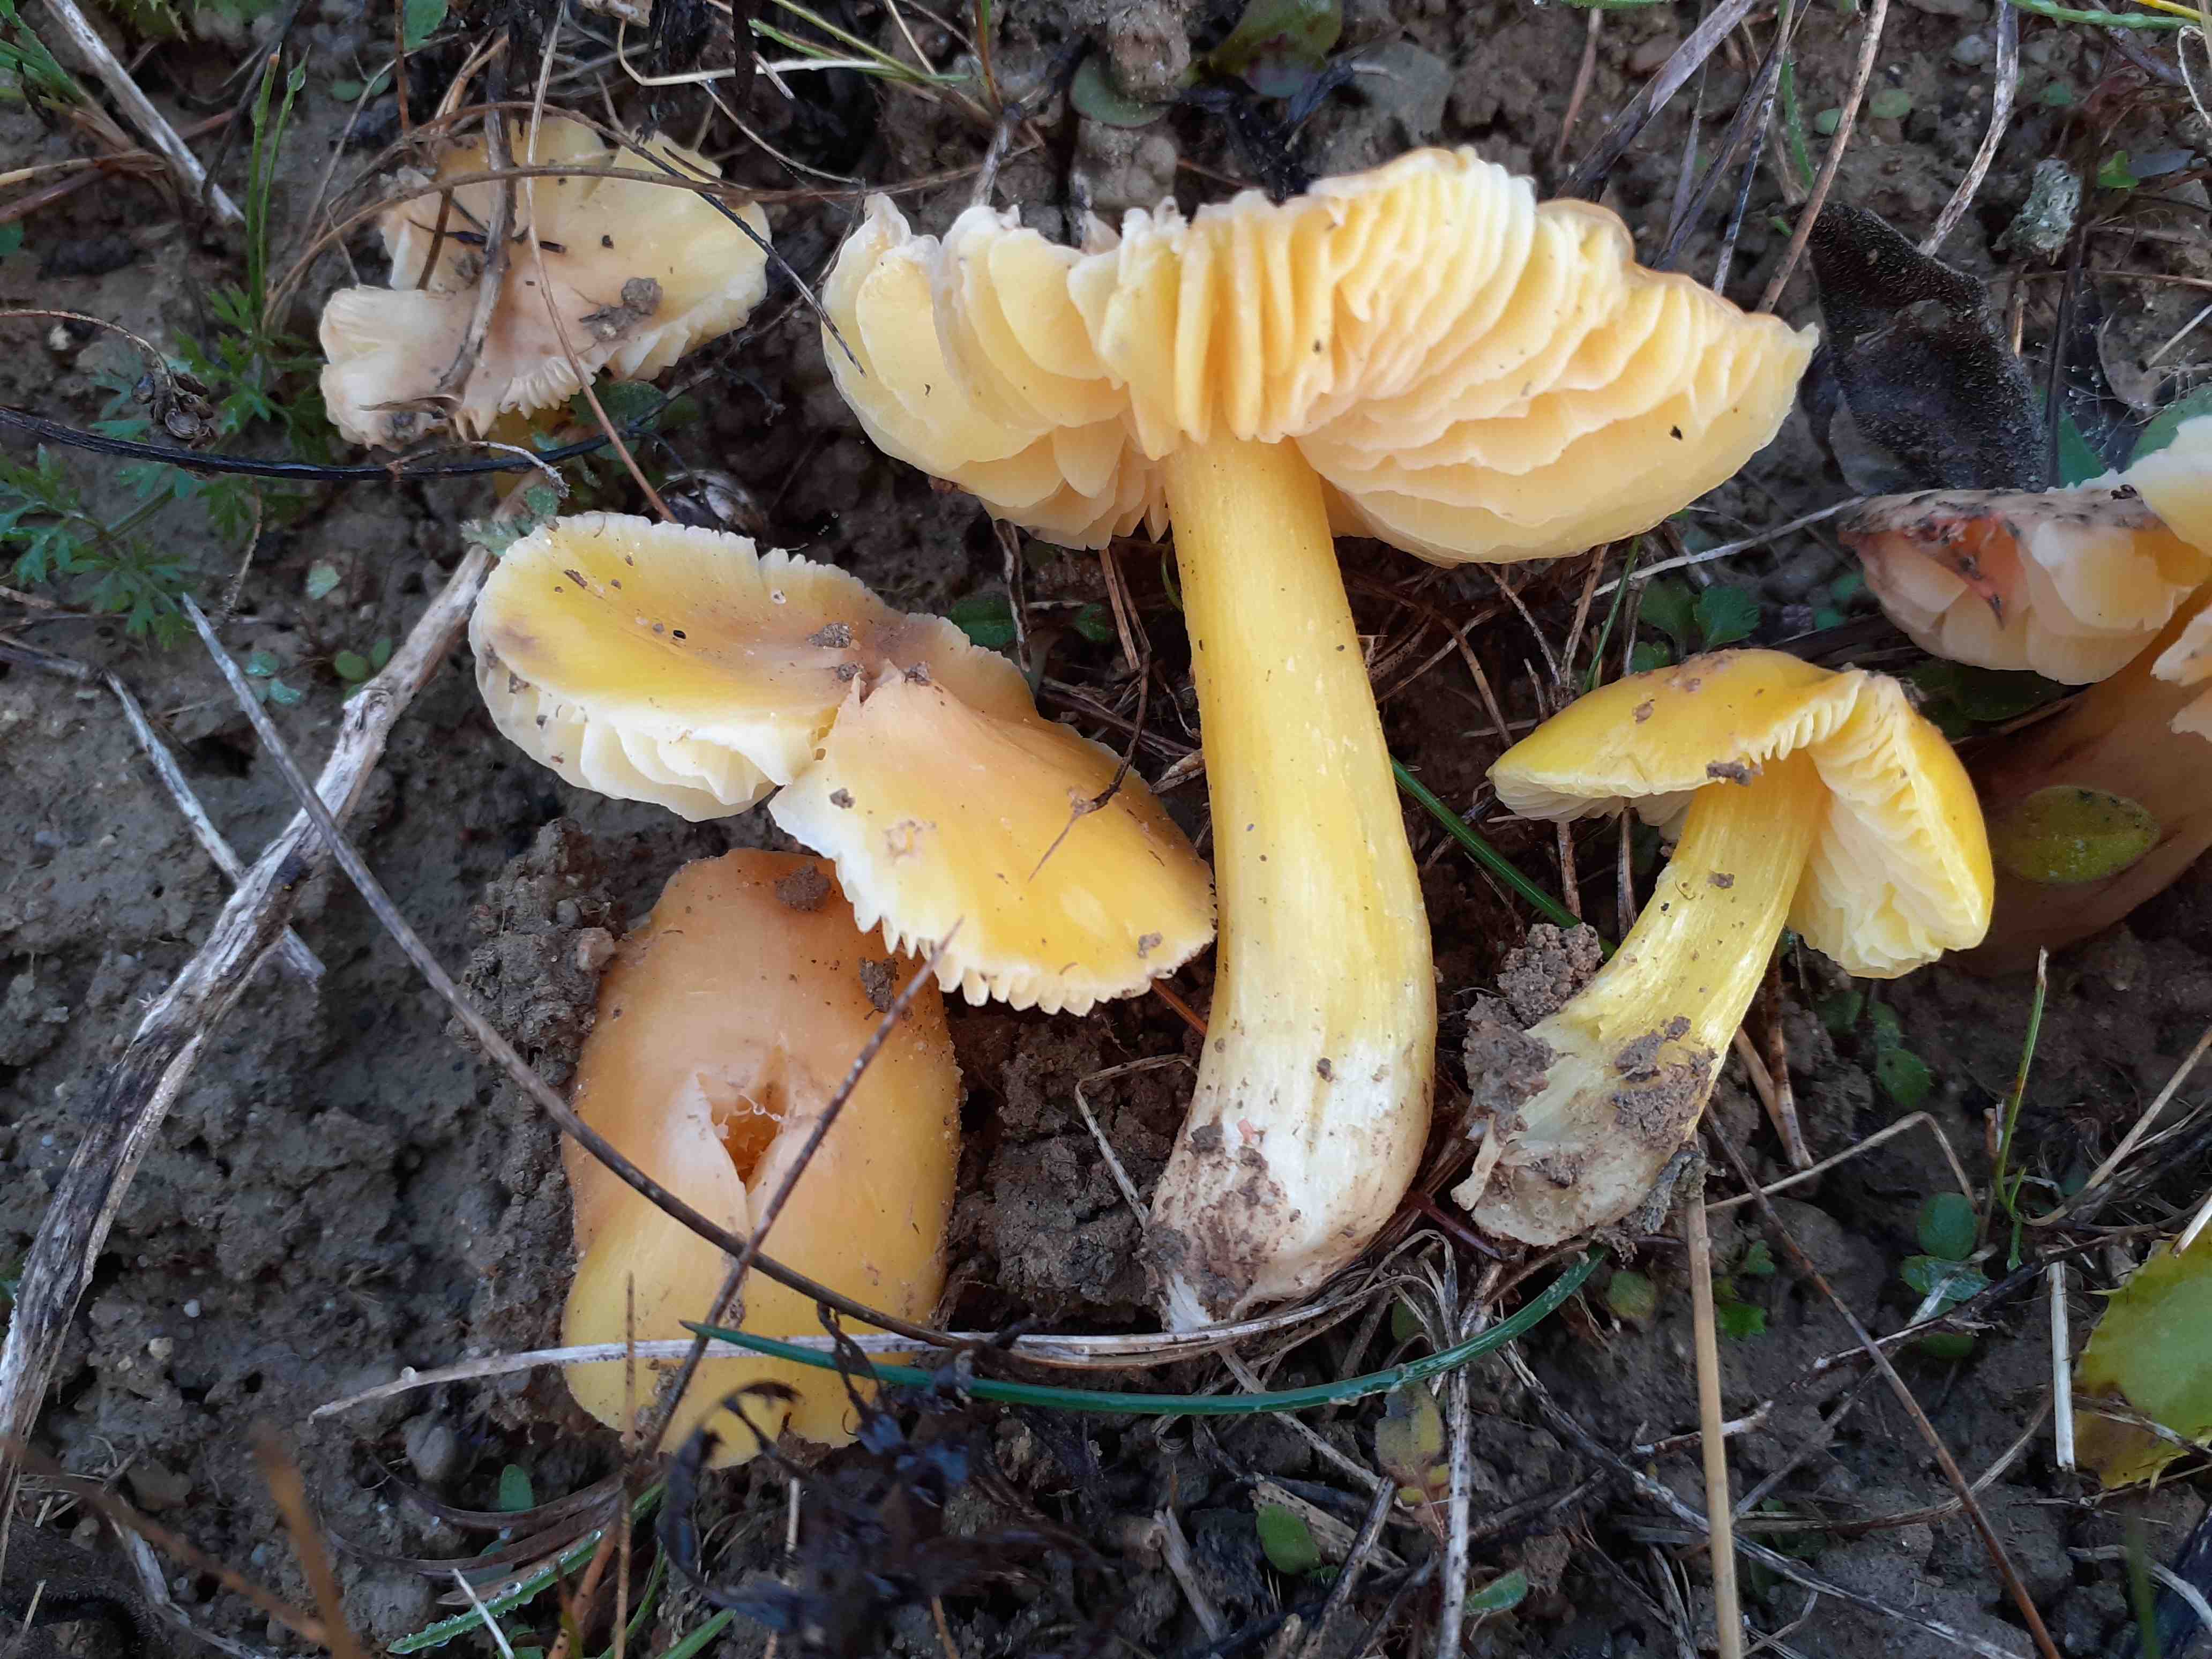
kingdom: Fungi
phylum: Basidiomycota
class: Agaricomycetes
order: Agaricales
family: Hygrophoraceae
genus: Hygrocybe
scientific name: Hygrocybe acutoconica
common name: Konrads vokshat
